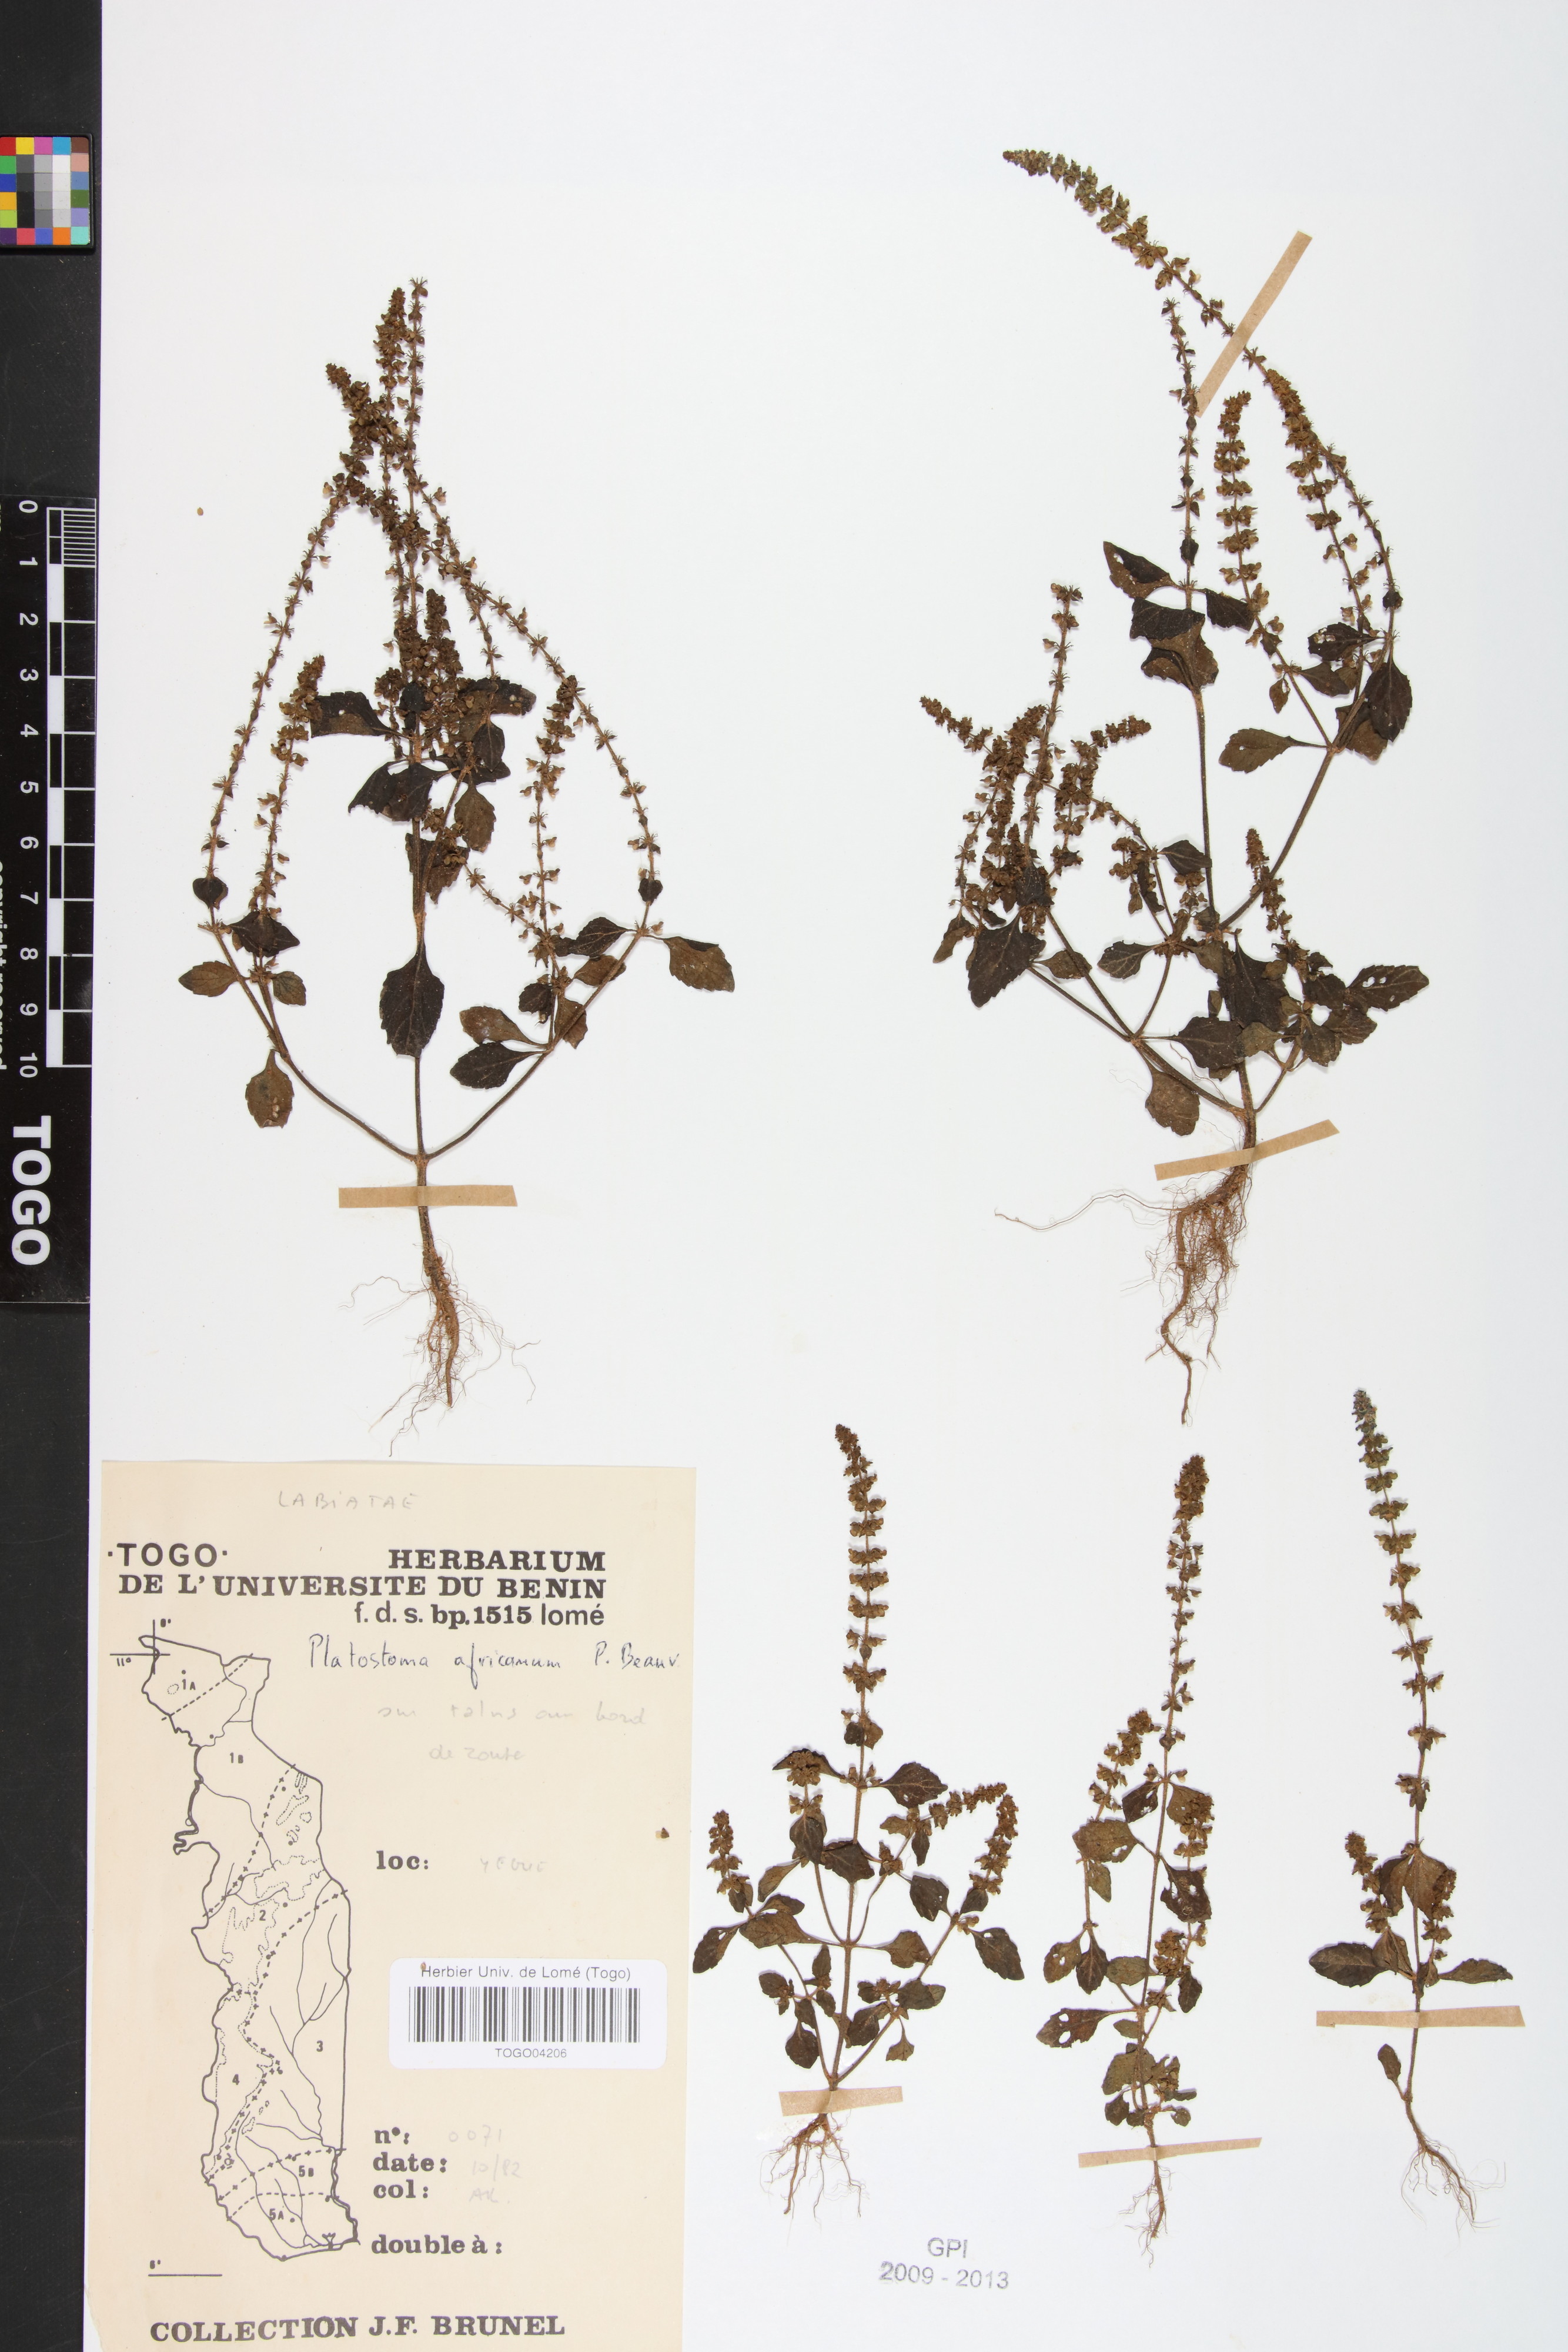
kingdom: Plantae
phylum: Tracheophyta
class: Magnoliopsida
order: Lamiales
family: Lamiaceae
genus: Platostoma
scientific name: Platostoma africanum
